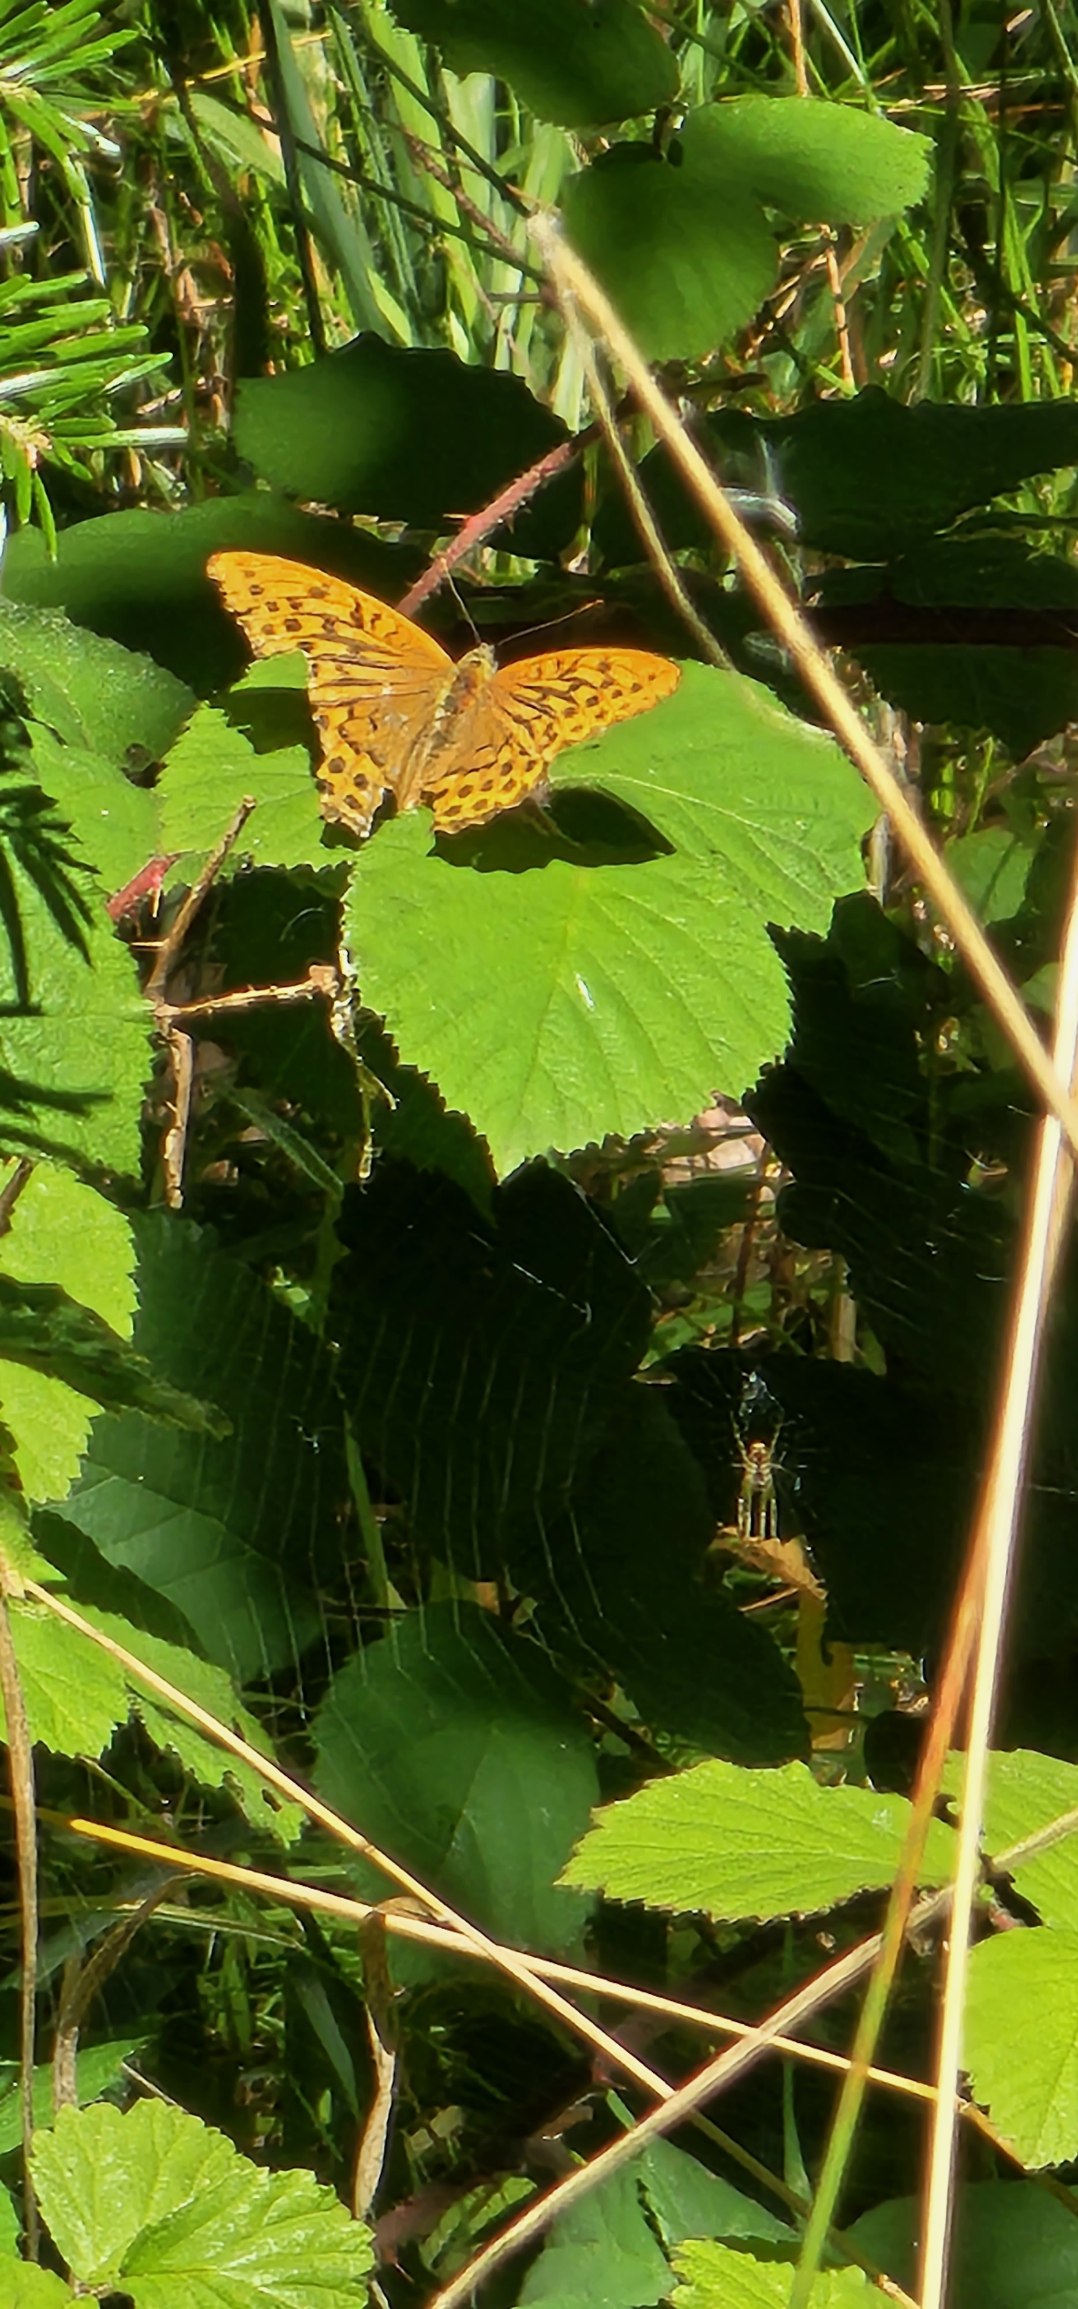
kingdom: Animalia
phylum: Arthropoda
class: Insecta
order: Lepidoptera
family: Nymphalidae
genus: Argynnis
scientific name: Argynnis paphia
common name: Kejserkåbe
